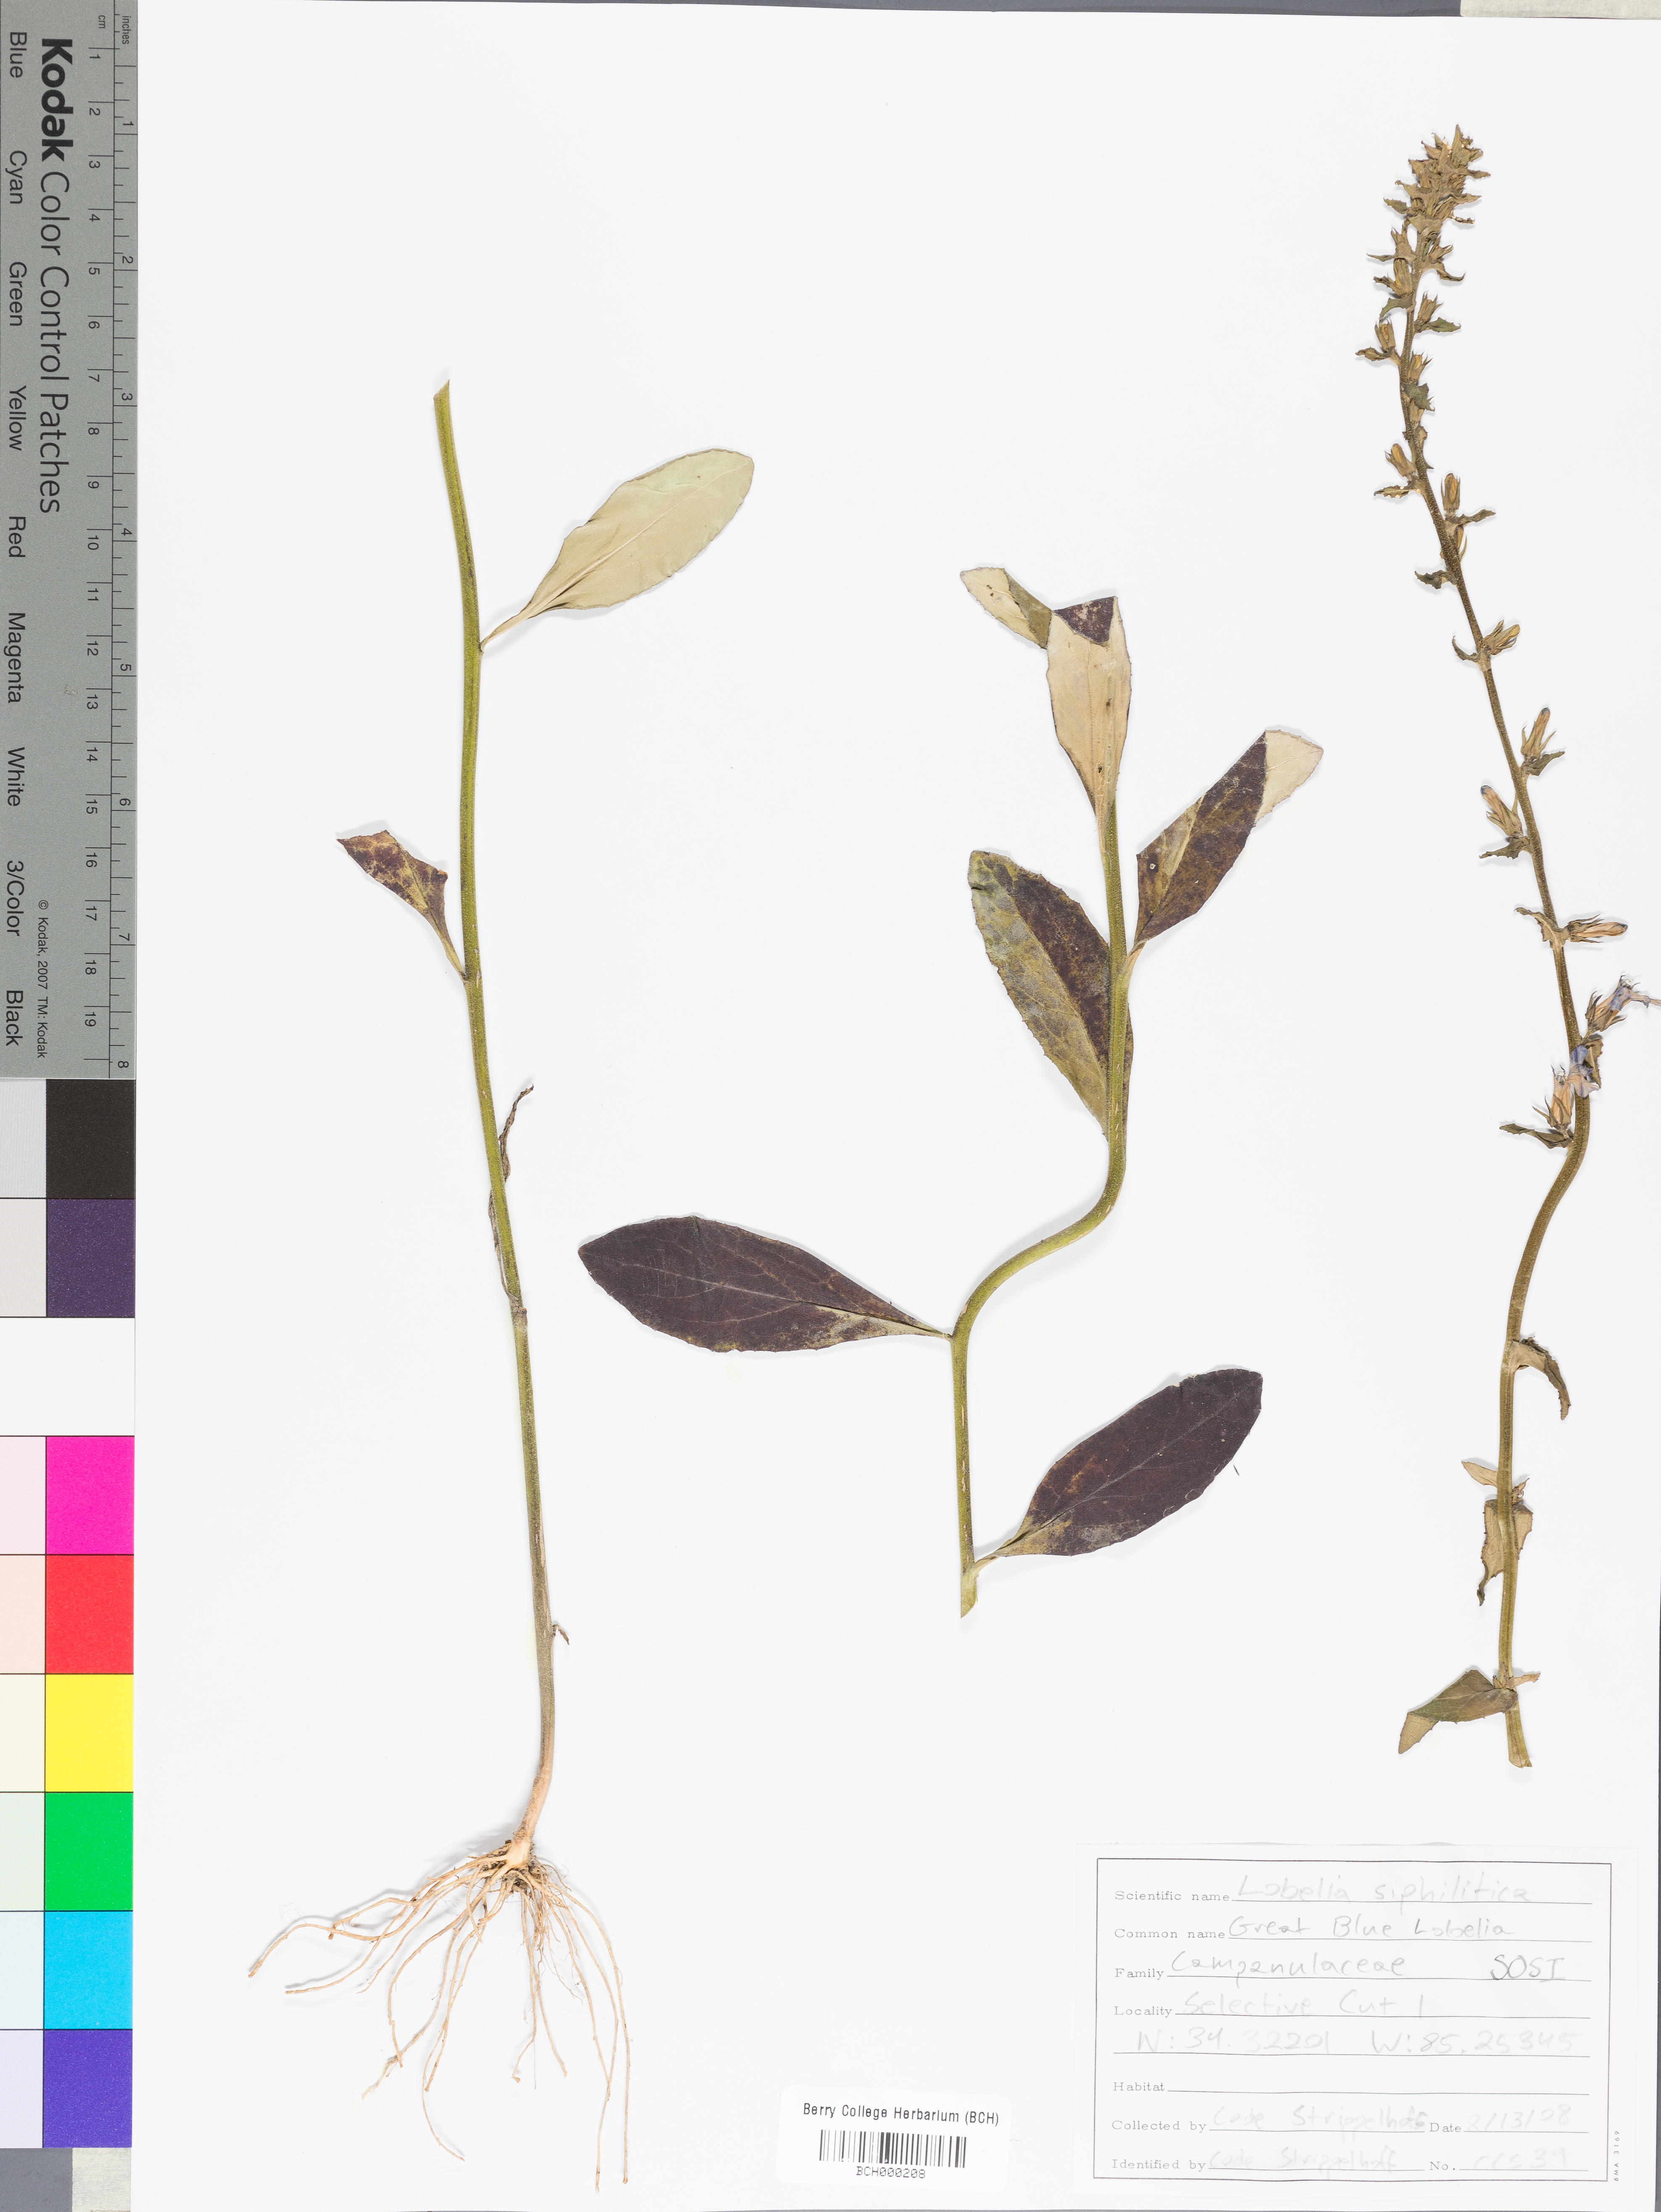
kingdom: Plantae
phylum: Tracheophyta
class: Magnoliopsida
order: Asterales
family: Campanulaceae
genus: Lobelia
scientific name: Lobelia siphilitica
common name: Great lobelia
